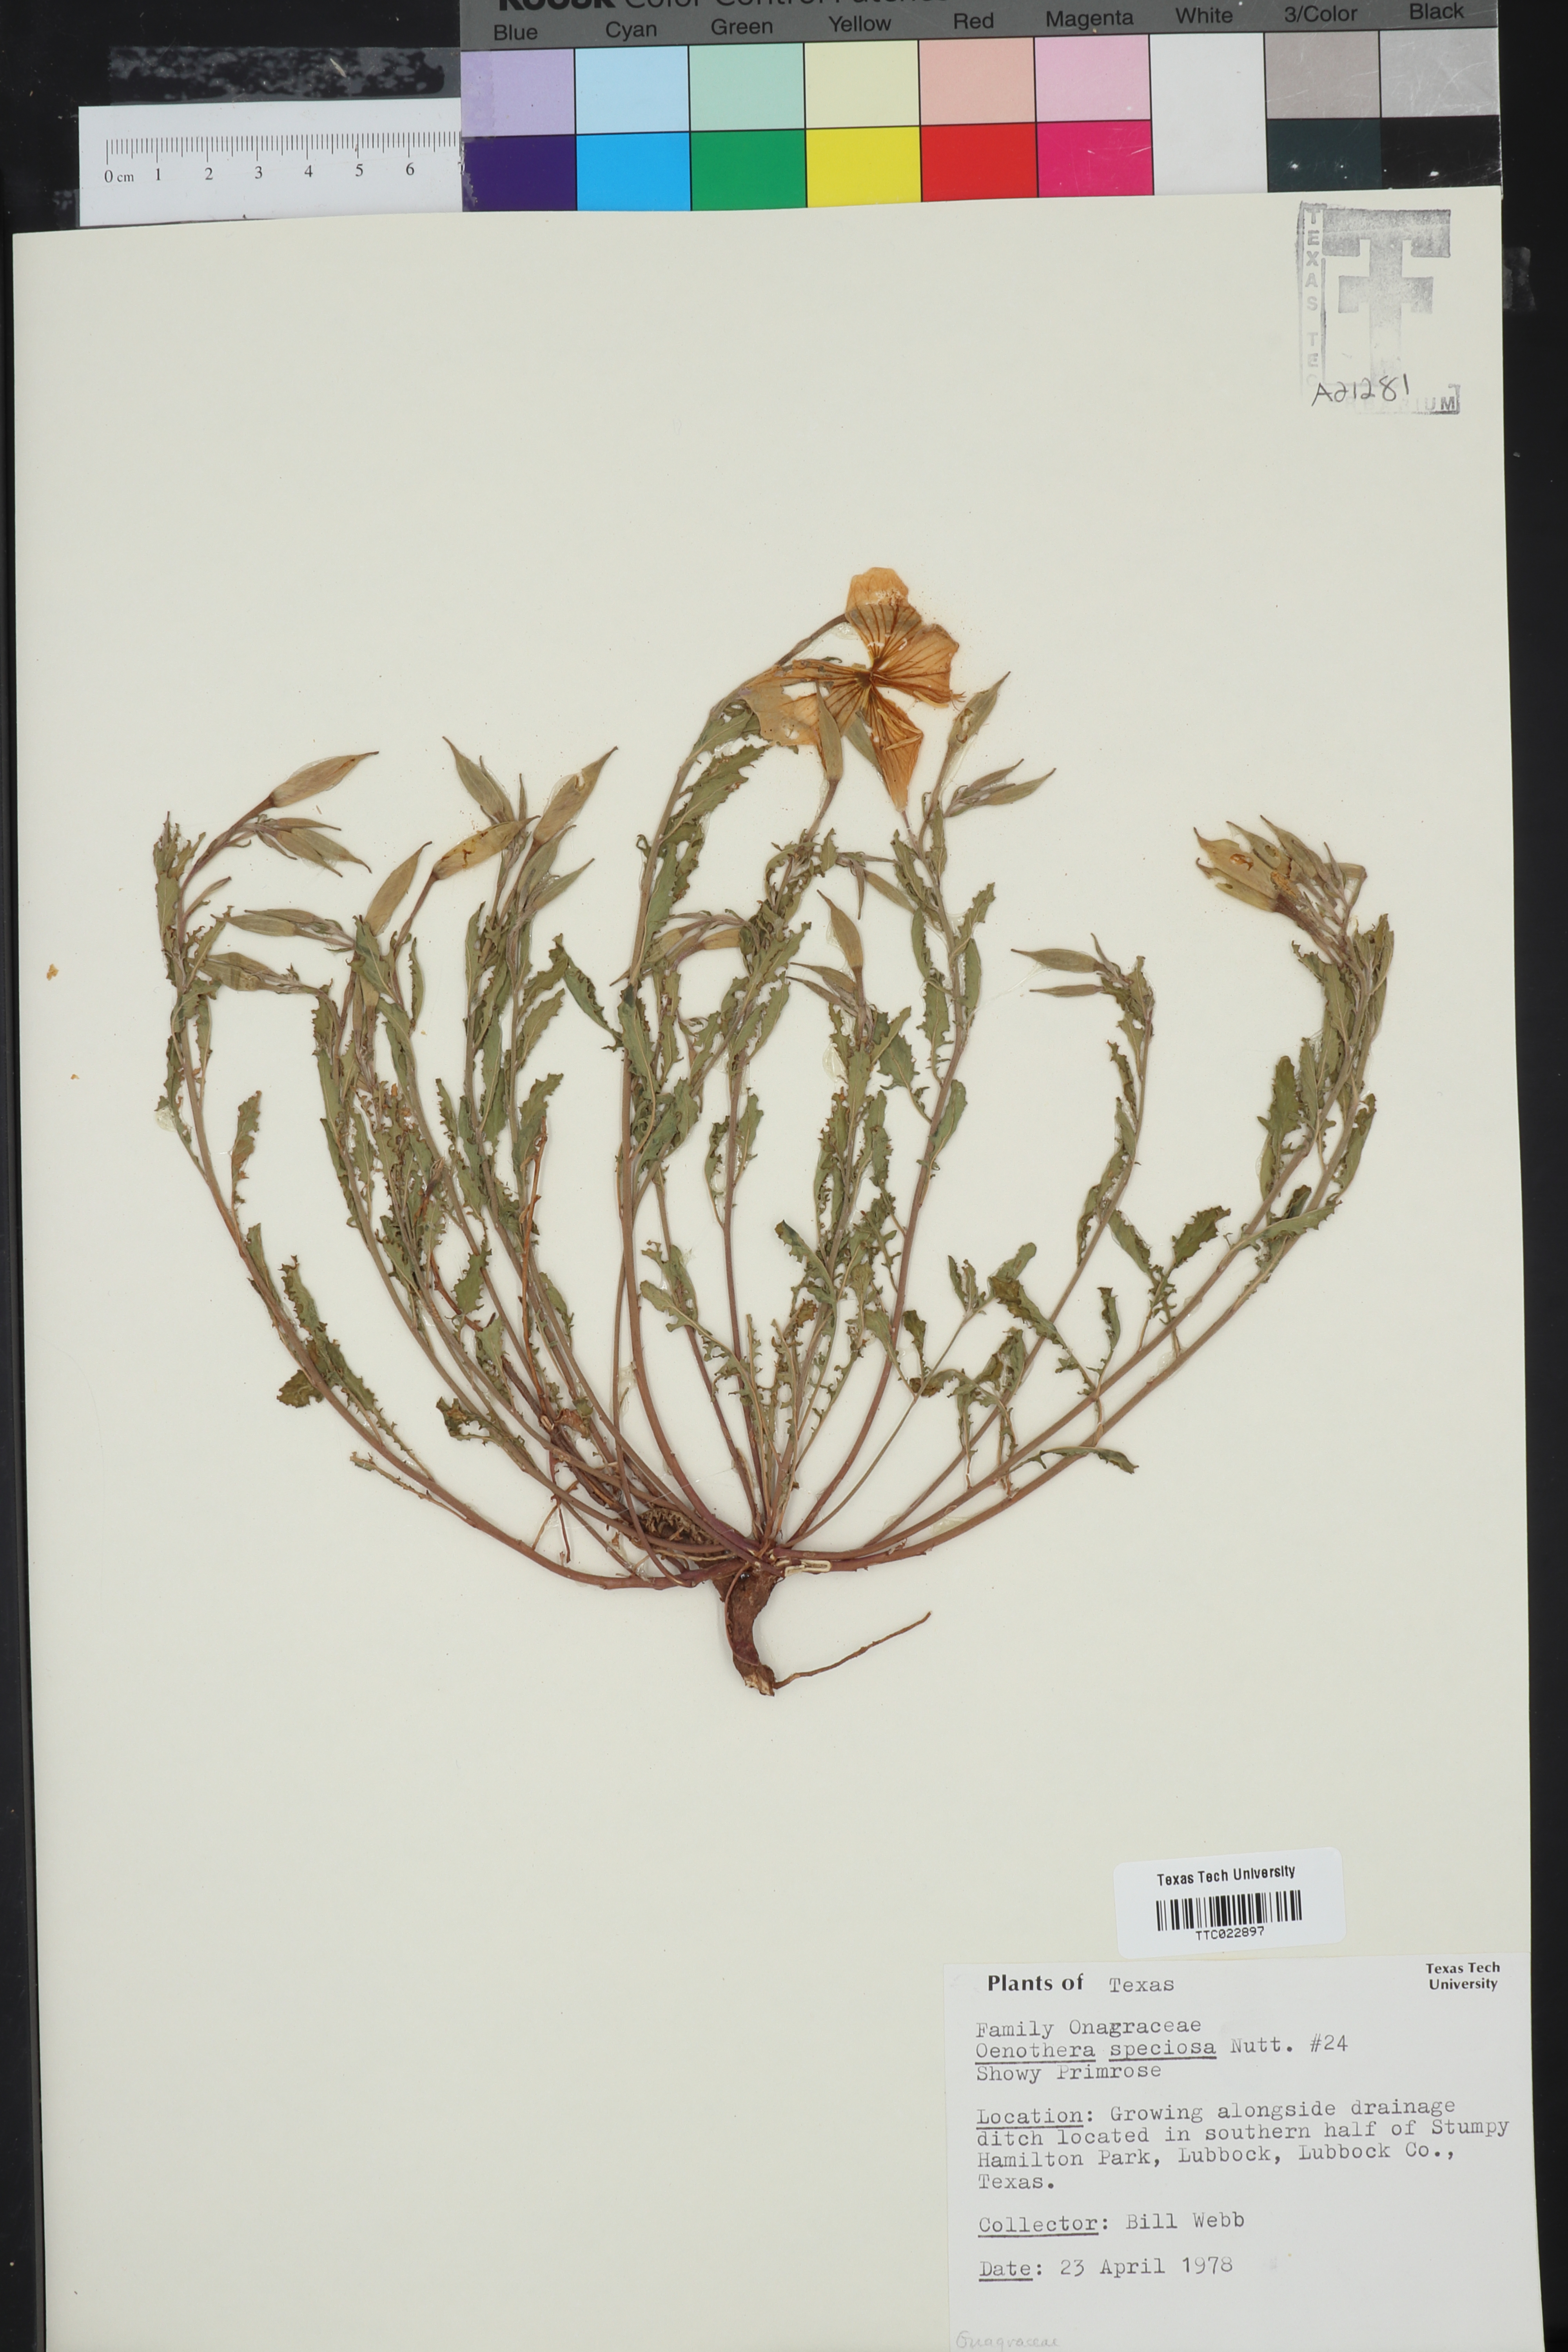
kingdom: Plantae
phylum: Tracheophyta
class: Magnoliopsida
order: Myrtales
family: Onagraceae
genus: Oenothera
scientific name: Oenothera speciosa
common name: White evening-primrose
